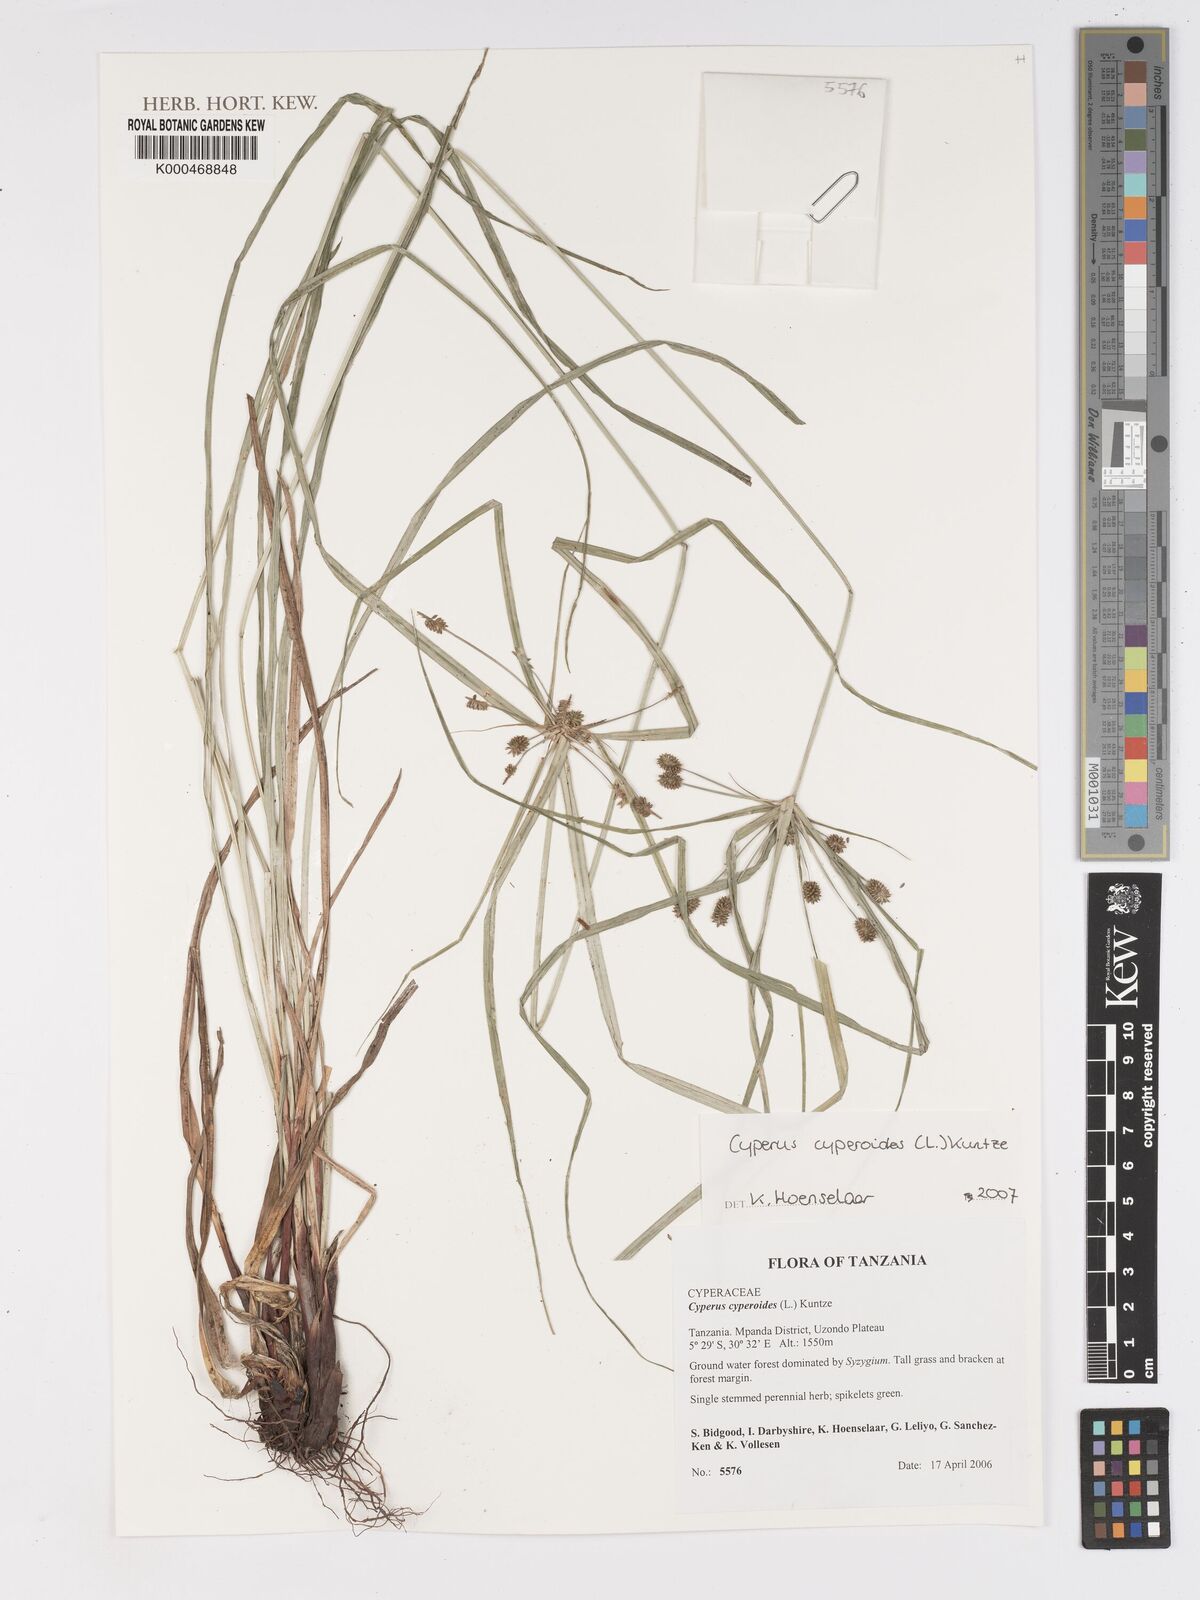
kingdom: Plantae
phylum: Tracheophyta
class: Liliopsida
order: Poales
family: Cyperaceae
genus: Cyperus
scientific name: Cyperus cyperoides
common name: Pacific island flat sedge
